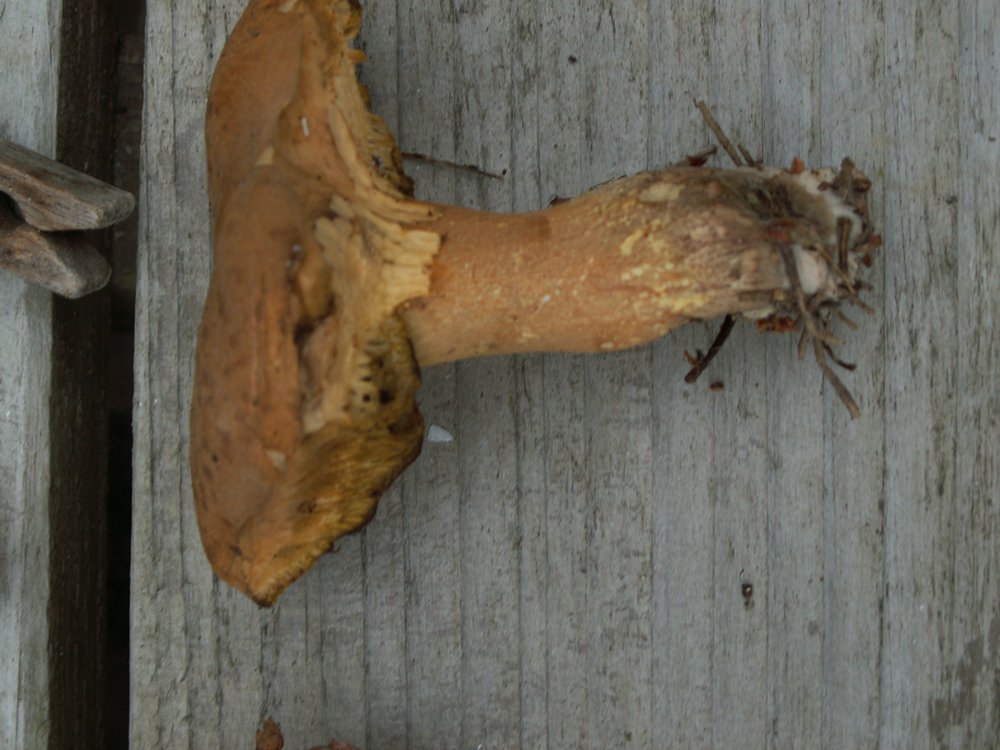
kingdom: Fungi
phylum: Basidiomycota
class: Agaricomycetes
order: Boletales
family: Suillaceae
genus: Suillus
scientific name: Suillus variegatus
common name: broget slimrørhat
